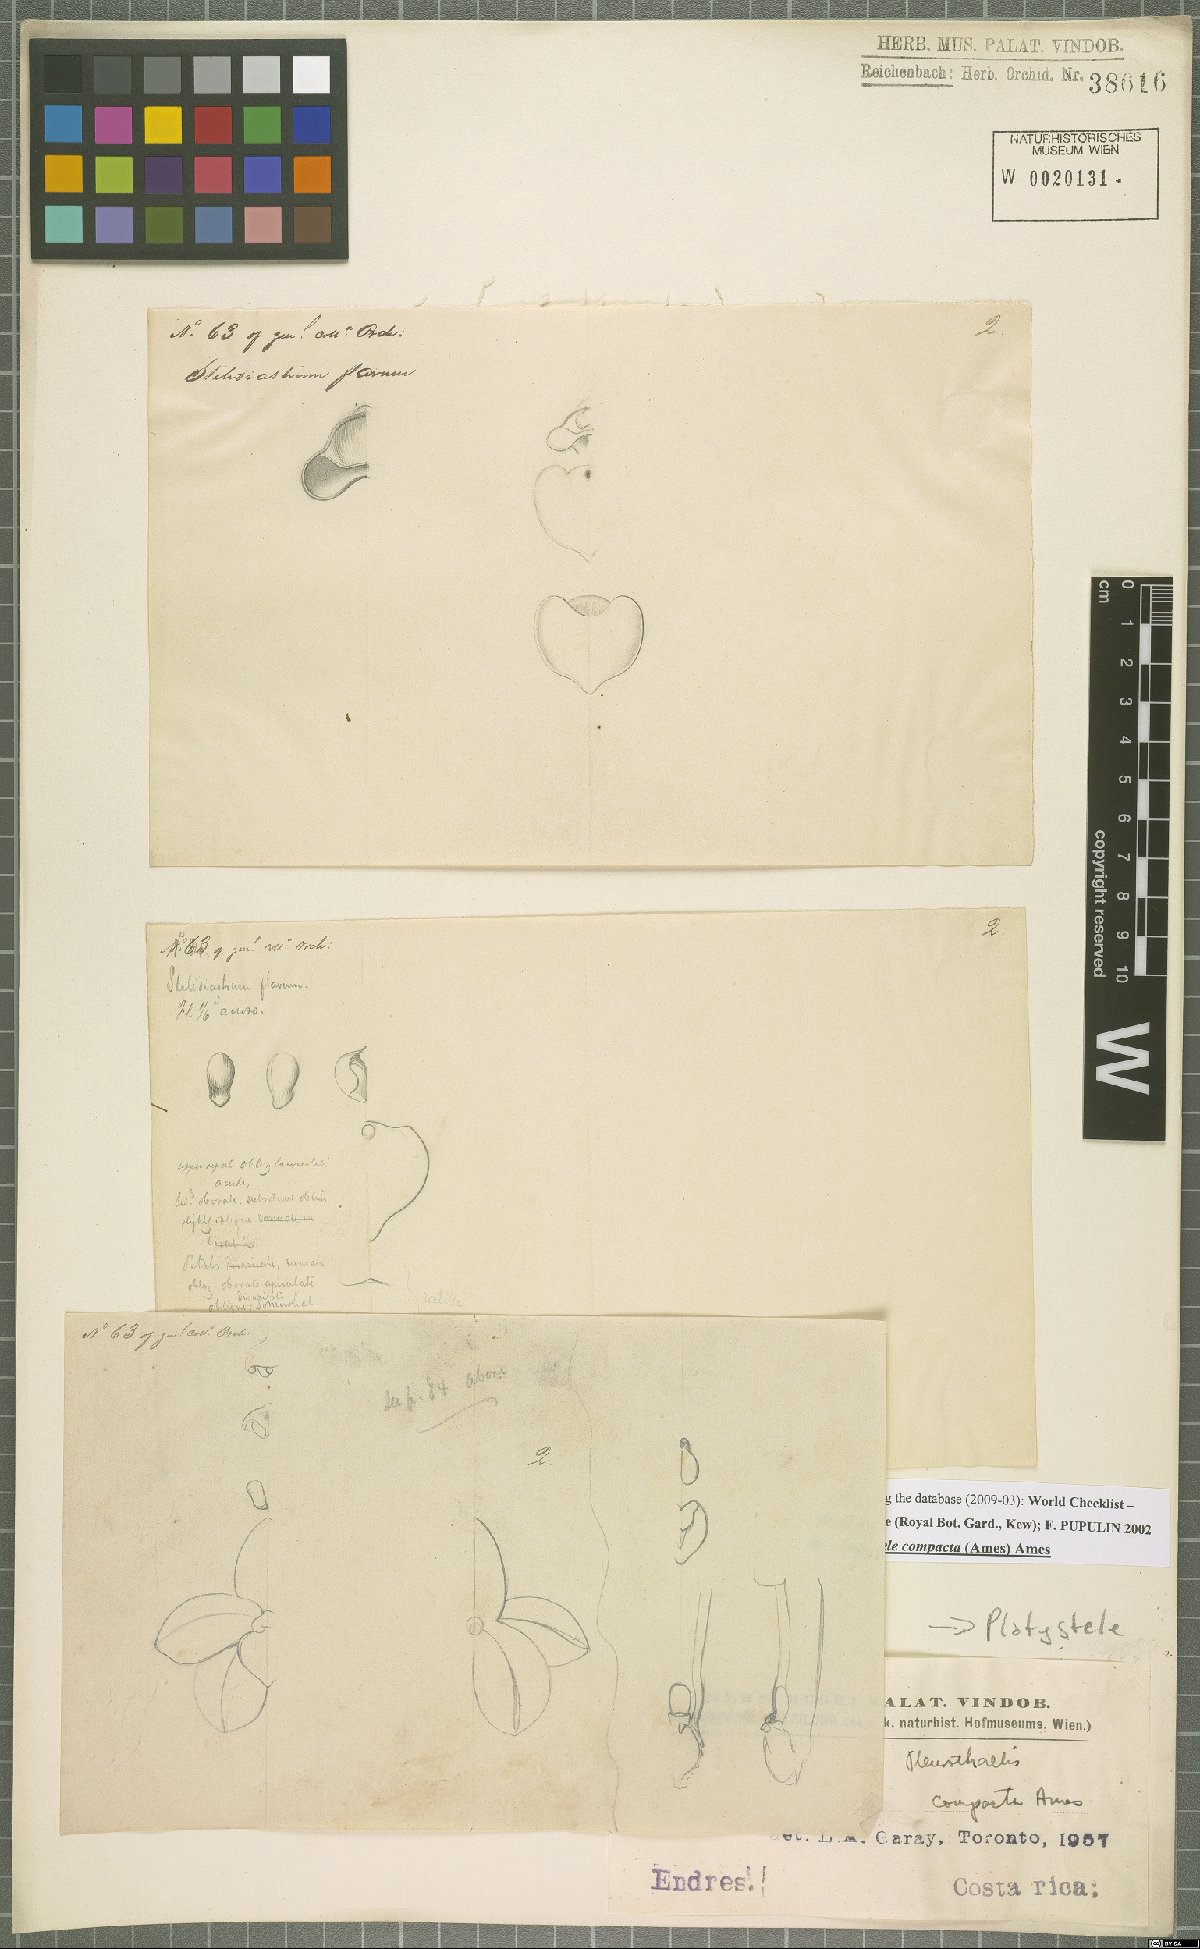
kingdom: Plantae
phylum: Tracheophyta
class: Liliopsida
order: Asparagales
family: Orchidaceae
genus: Platystele
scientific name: Platystele compacta
